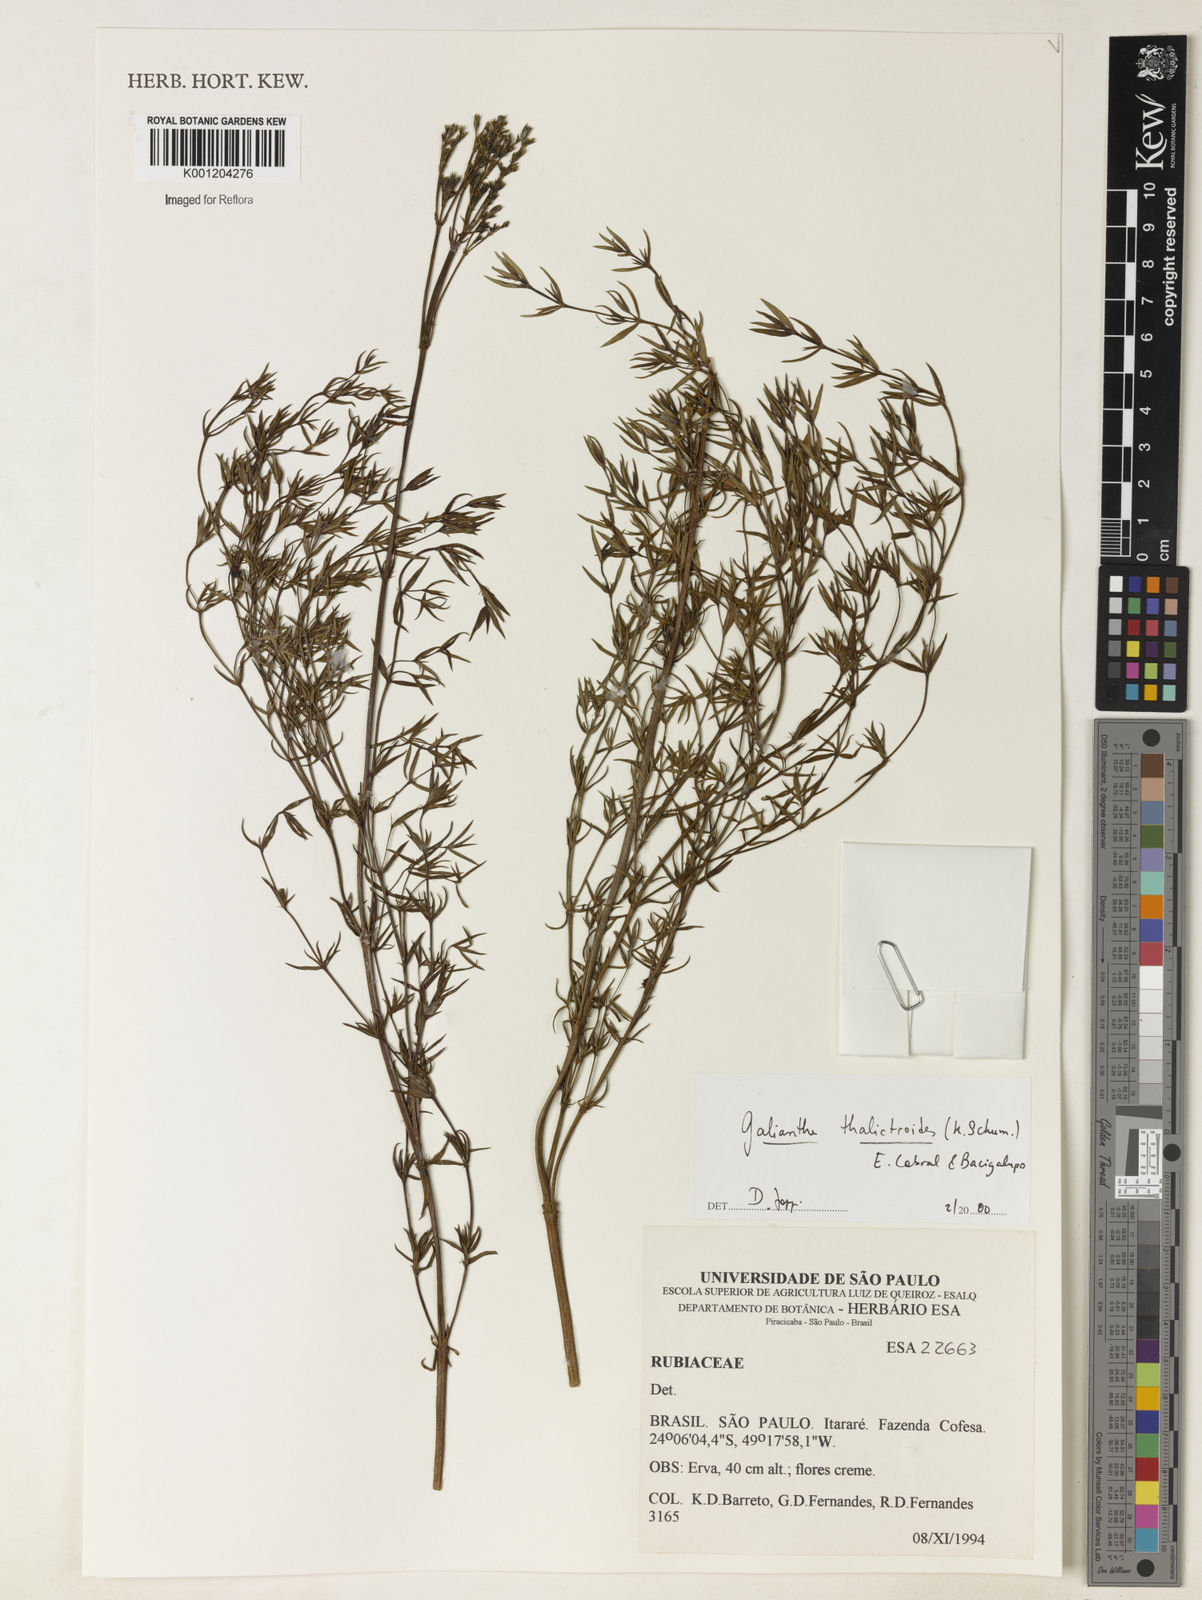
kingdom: Plantae
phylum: Tracheophyta
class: Magnoliopsida
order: Gentianales
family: Rubiaceae
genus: Galianthe
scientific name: Galianthe thalictroides
